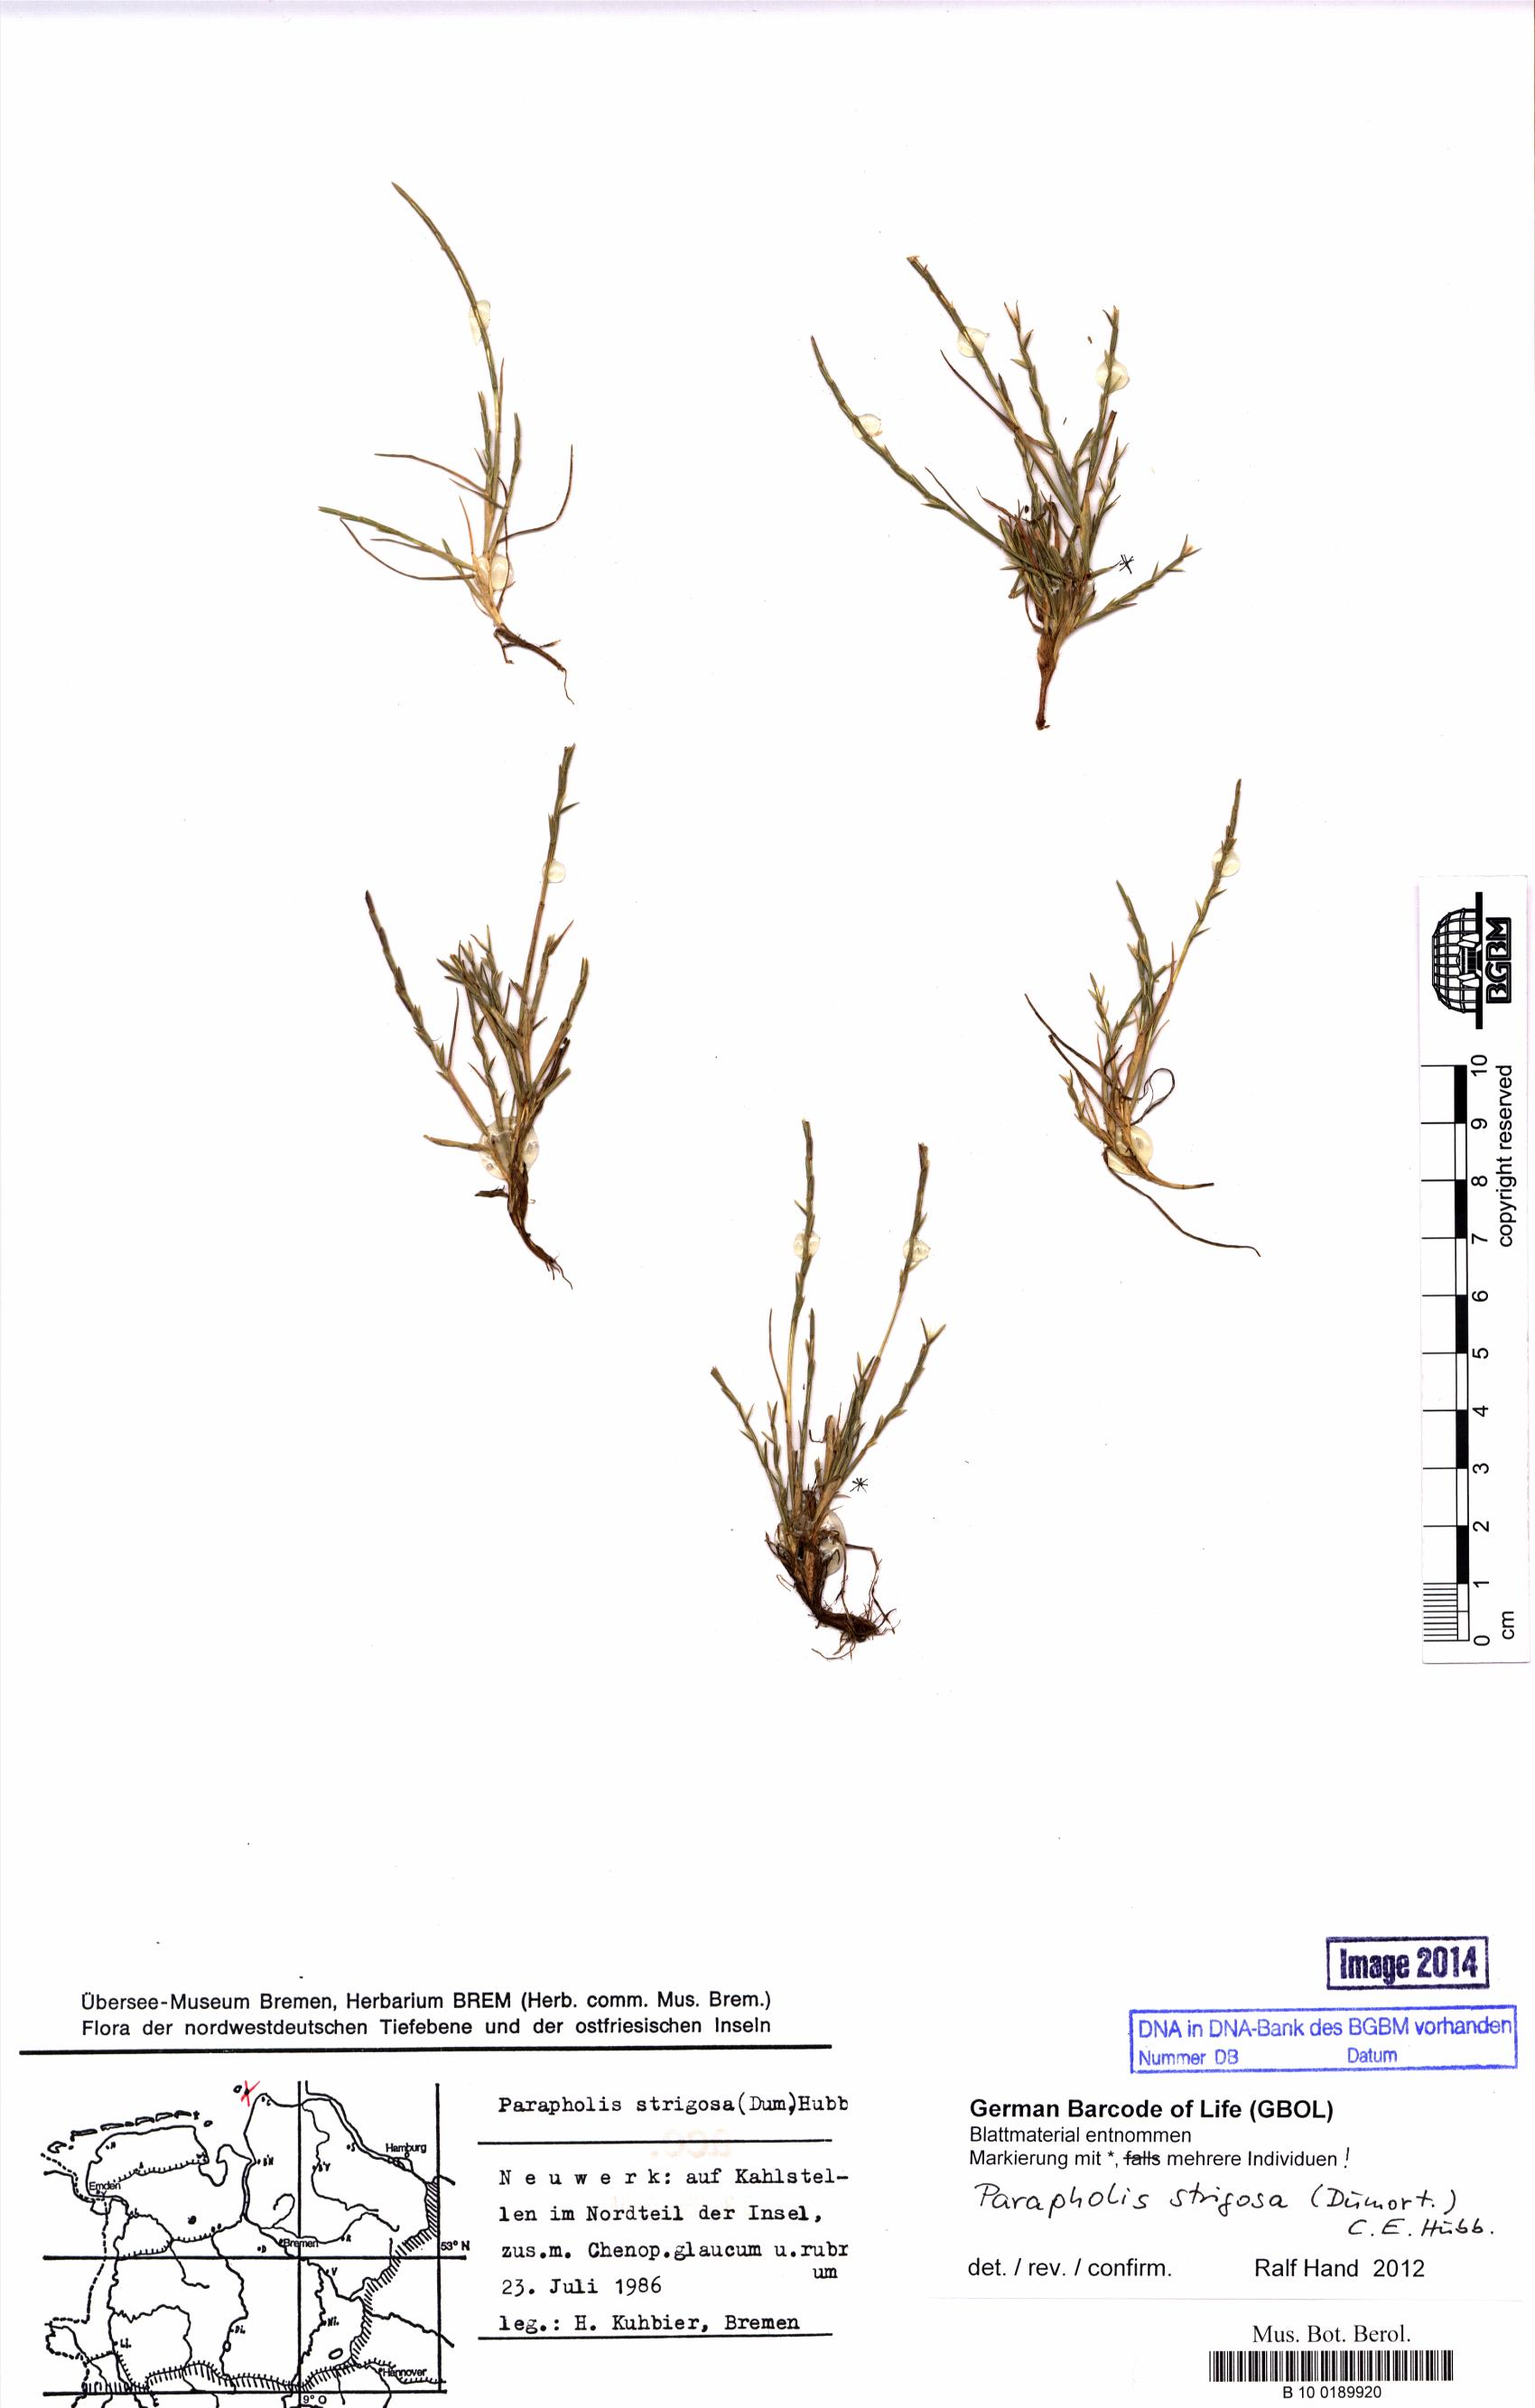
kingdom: Plantae
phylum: Tracheophyta
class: Liliopsida
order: Poales
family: Poaceae
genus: Parapholis
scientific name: Parapholis strigosa
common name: Hard-grass
